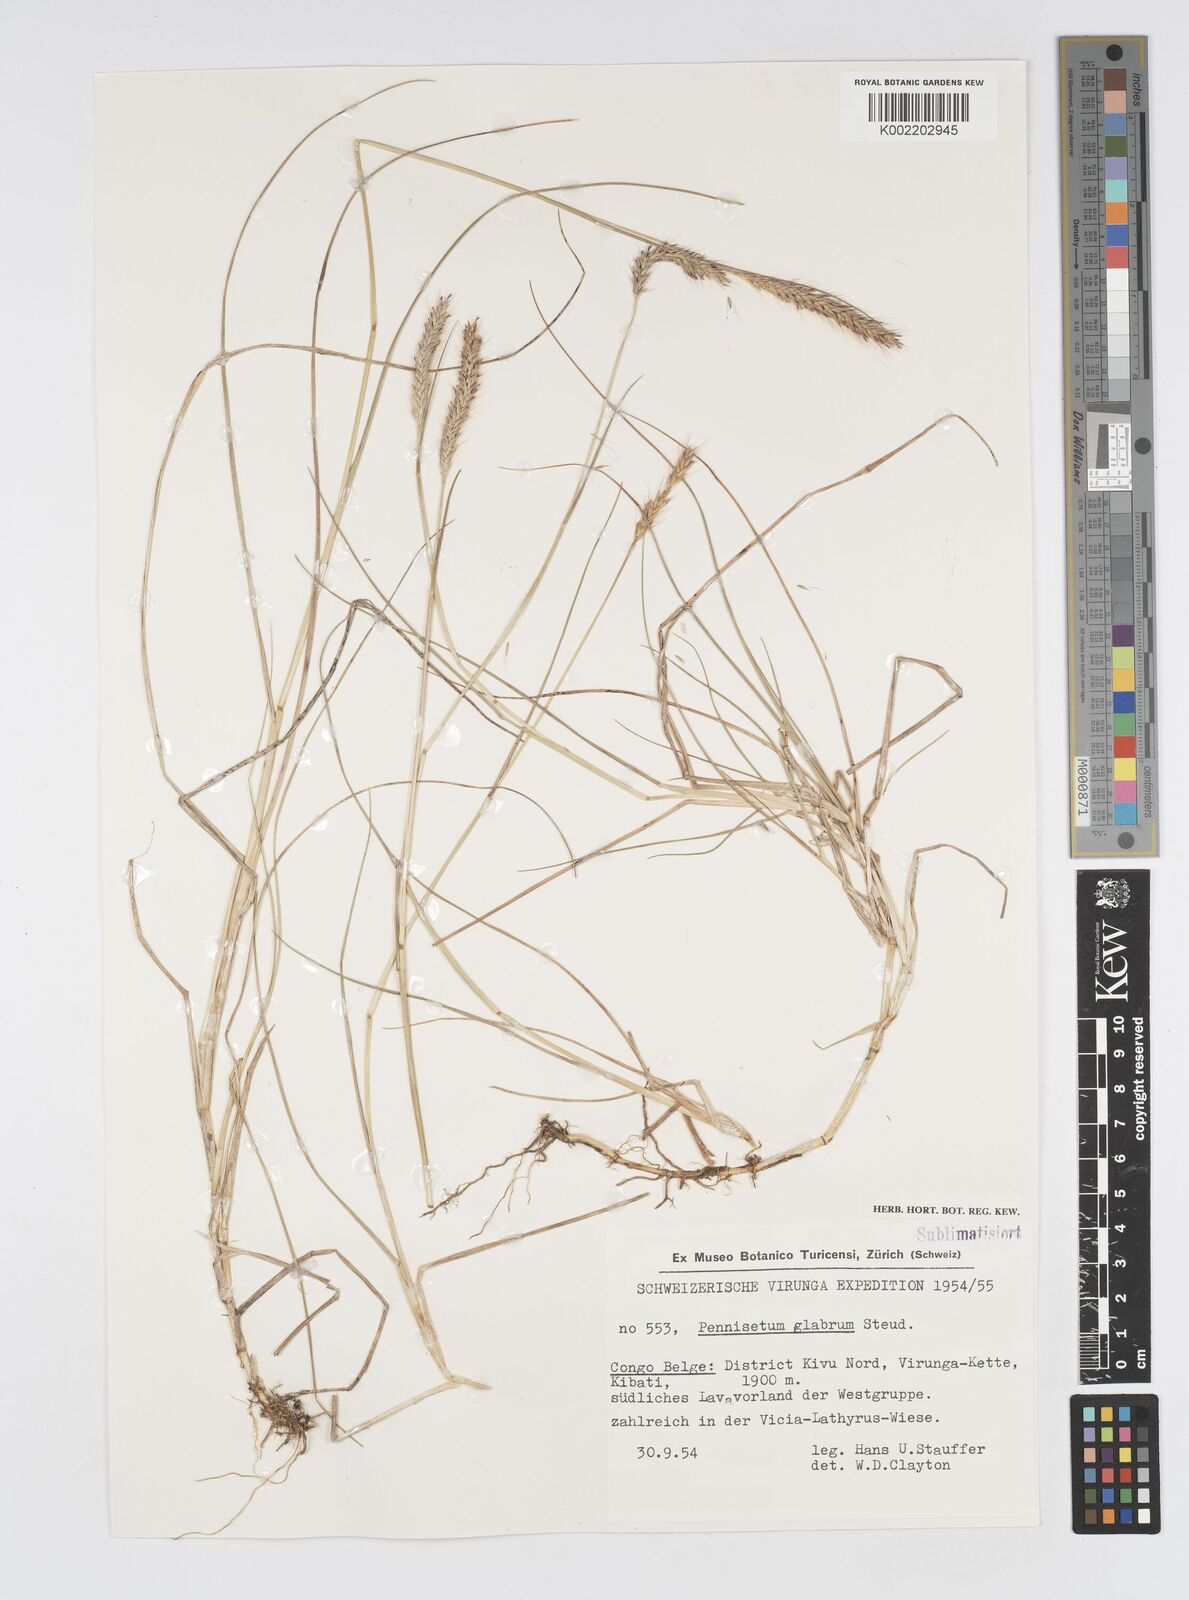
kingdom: Plantae
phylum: Tracheophyta
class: Liliopsida
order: Poales
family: Poaceae
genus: Cenchrus
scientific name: Cenchrus geniculatus
